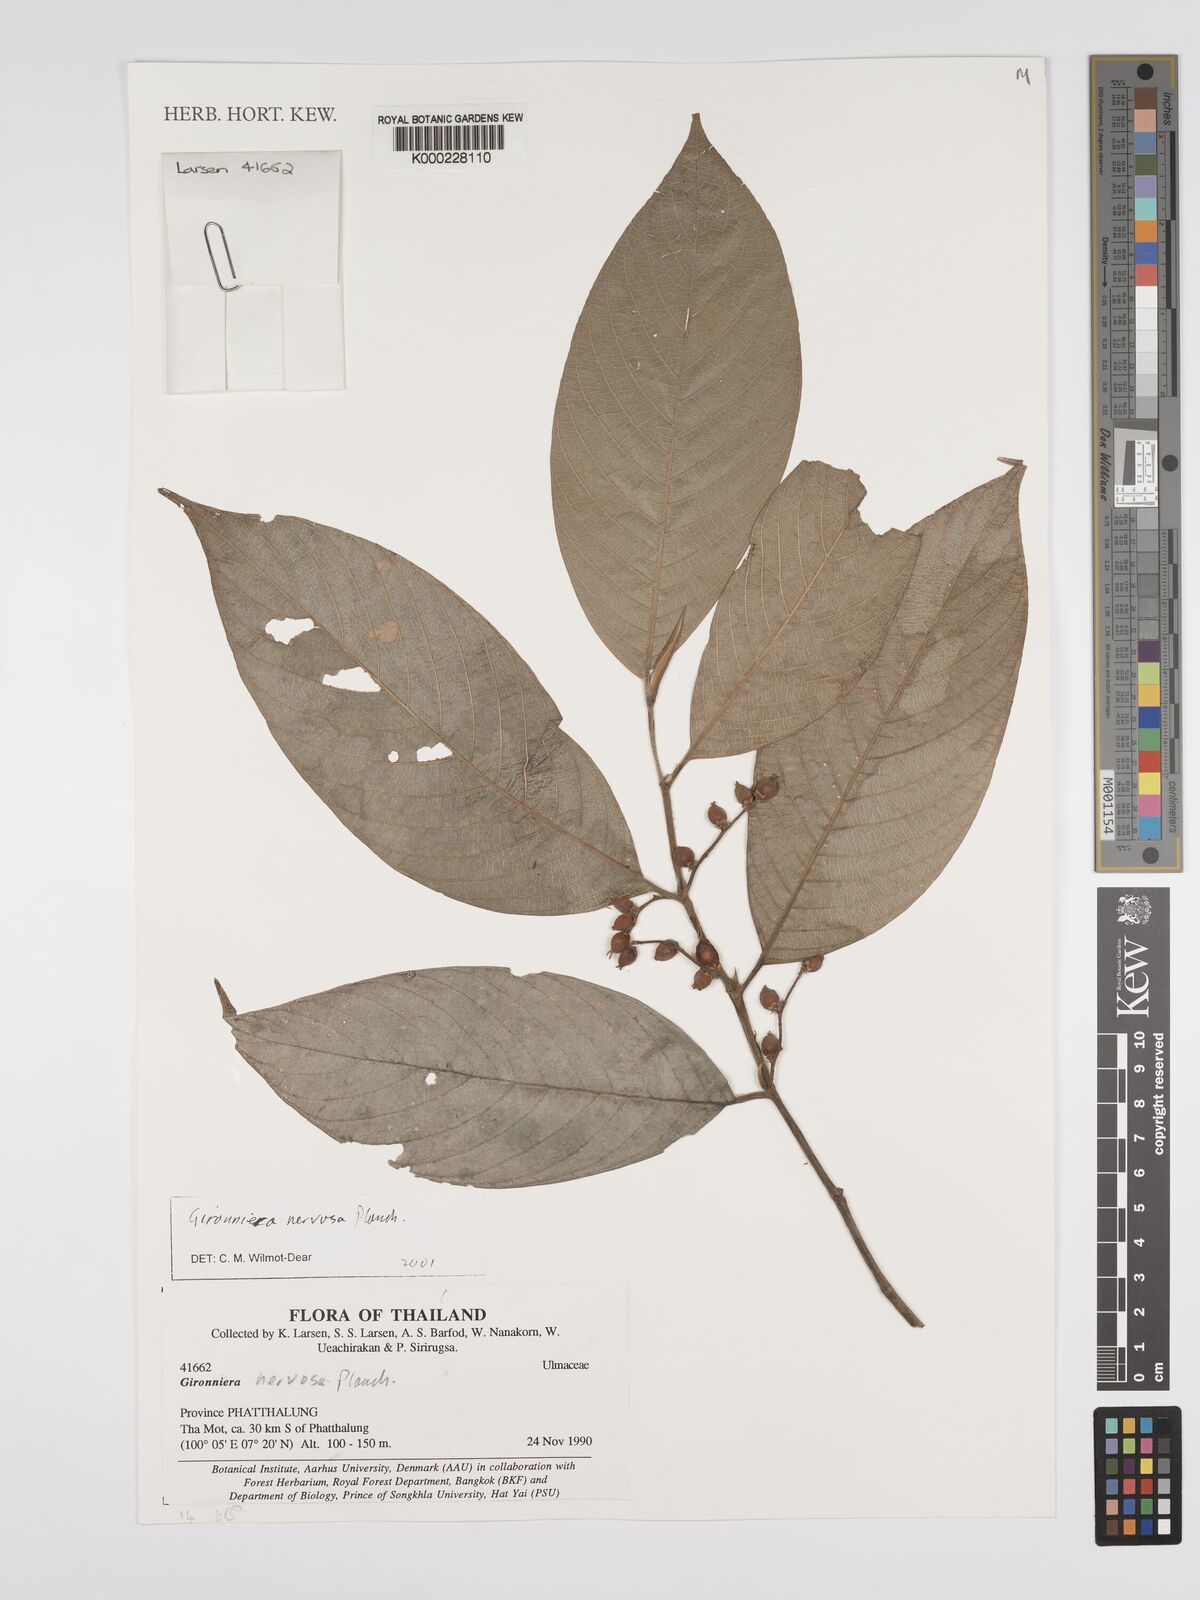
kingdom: Plantae
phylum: Tracheophyta
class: Magnoliopsida
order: Rosales
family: Cannabaceae
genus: Gironniera
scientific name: Gironniera nervosa
